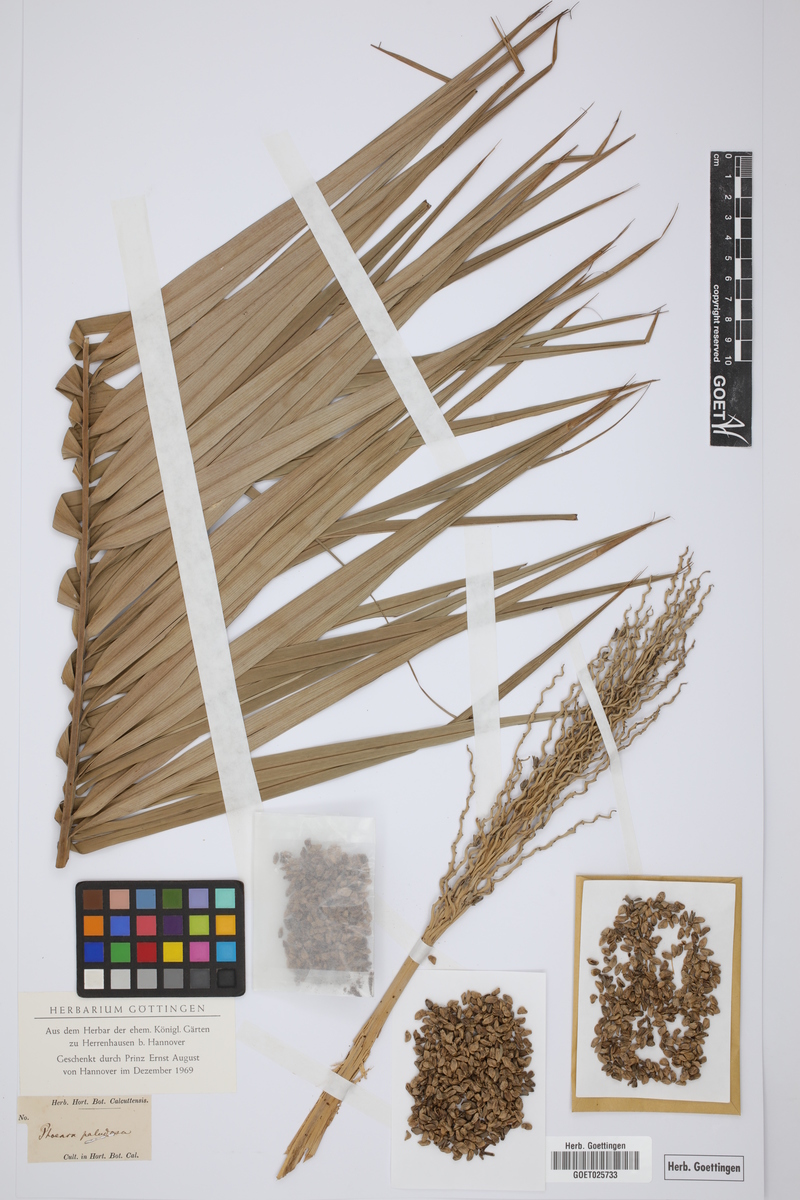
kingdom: Plantae
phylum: Tracheophyta
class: Liliopsida
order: Arecales
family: Arecaceae
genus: Phoenix
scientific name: Phoenix paludosa
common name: Mangrove date palm
